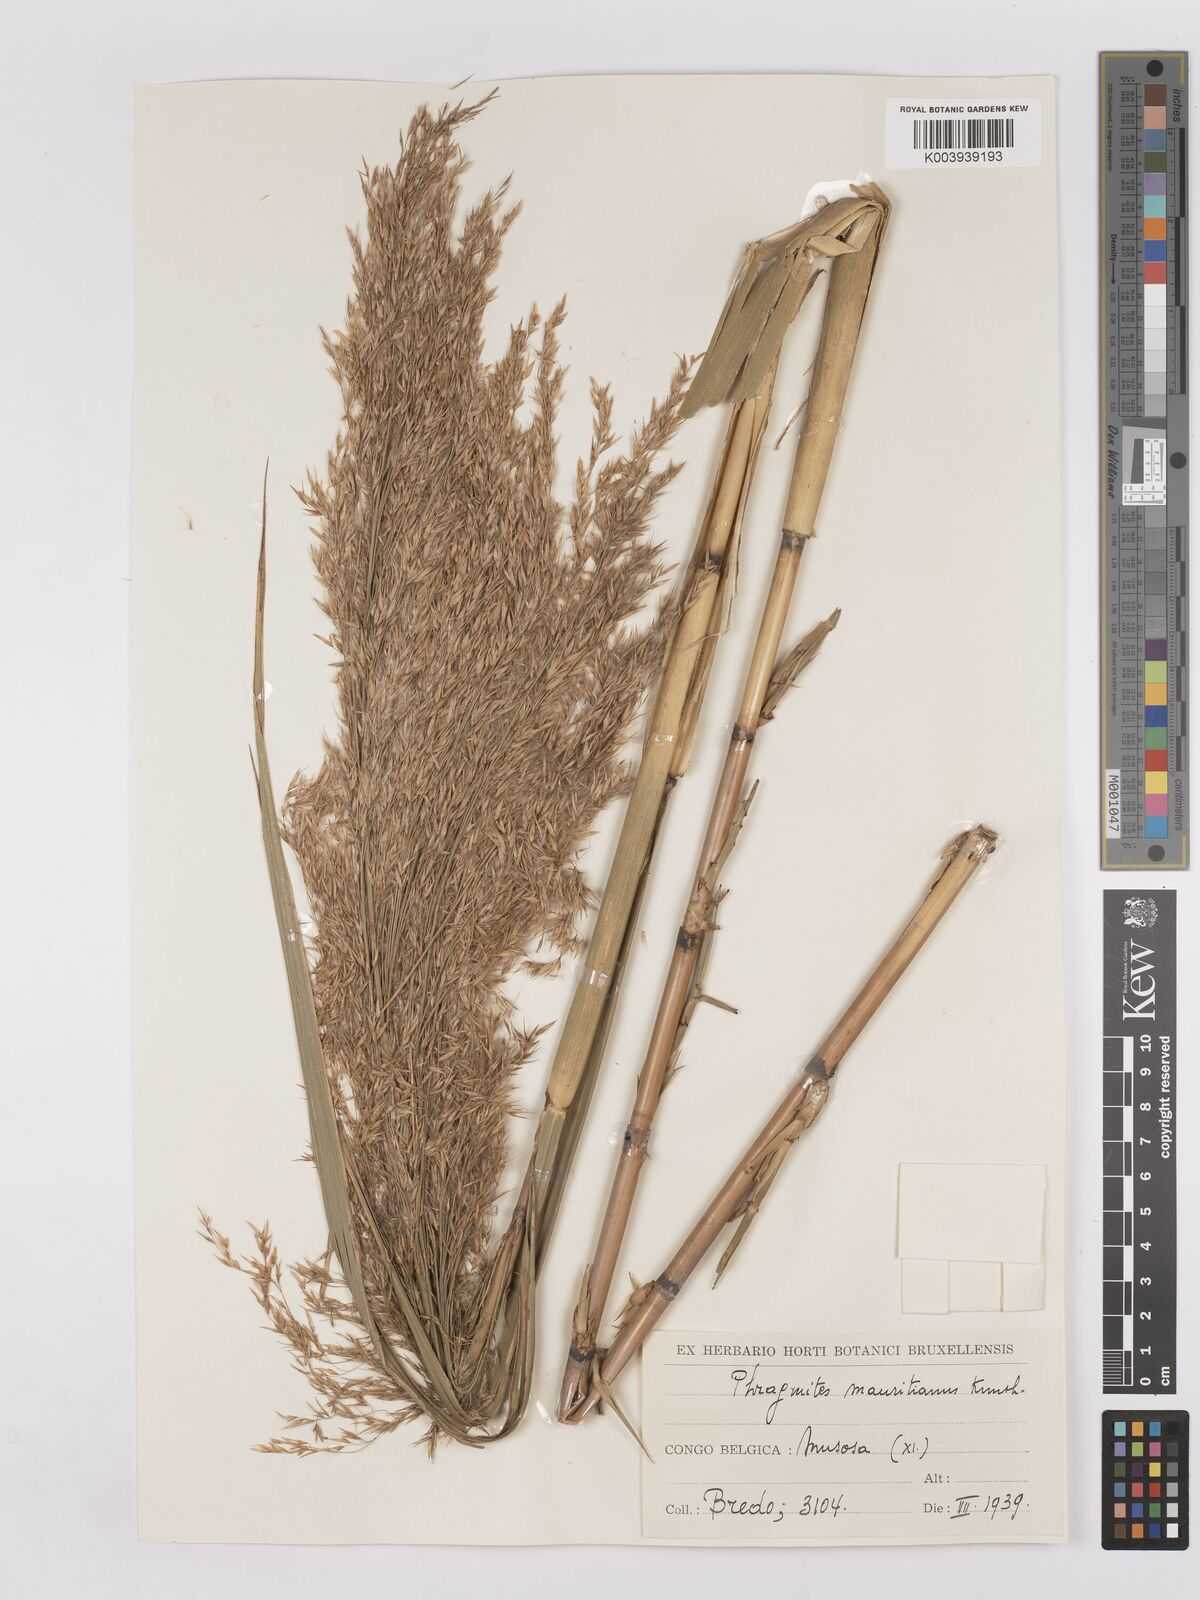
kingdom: Plantae
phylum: Tracheophyta
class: Liliopsida
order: Poales
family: Poaceae
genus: Phragmites
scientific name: Phragmites mauritianus
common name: Reed grass
